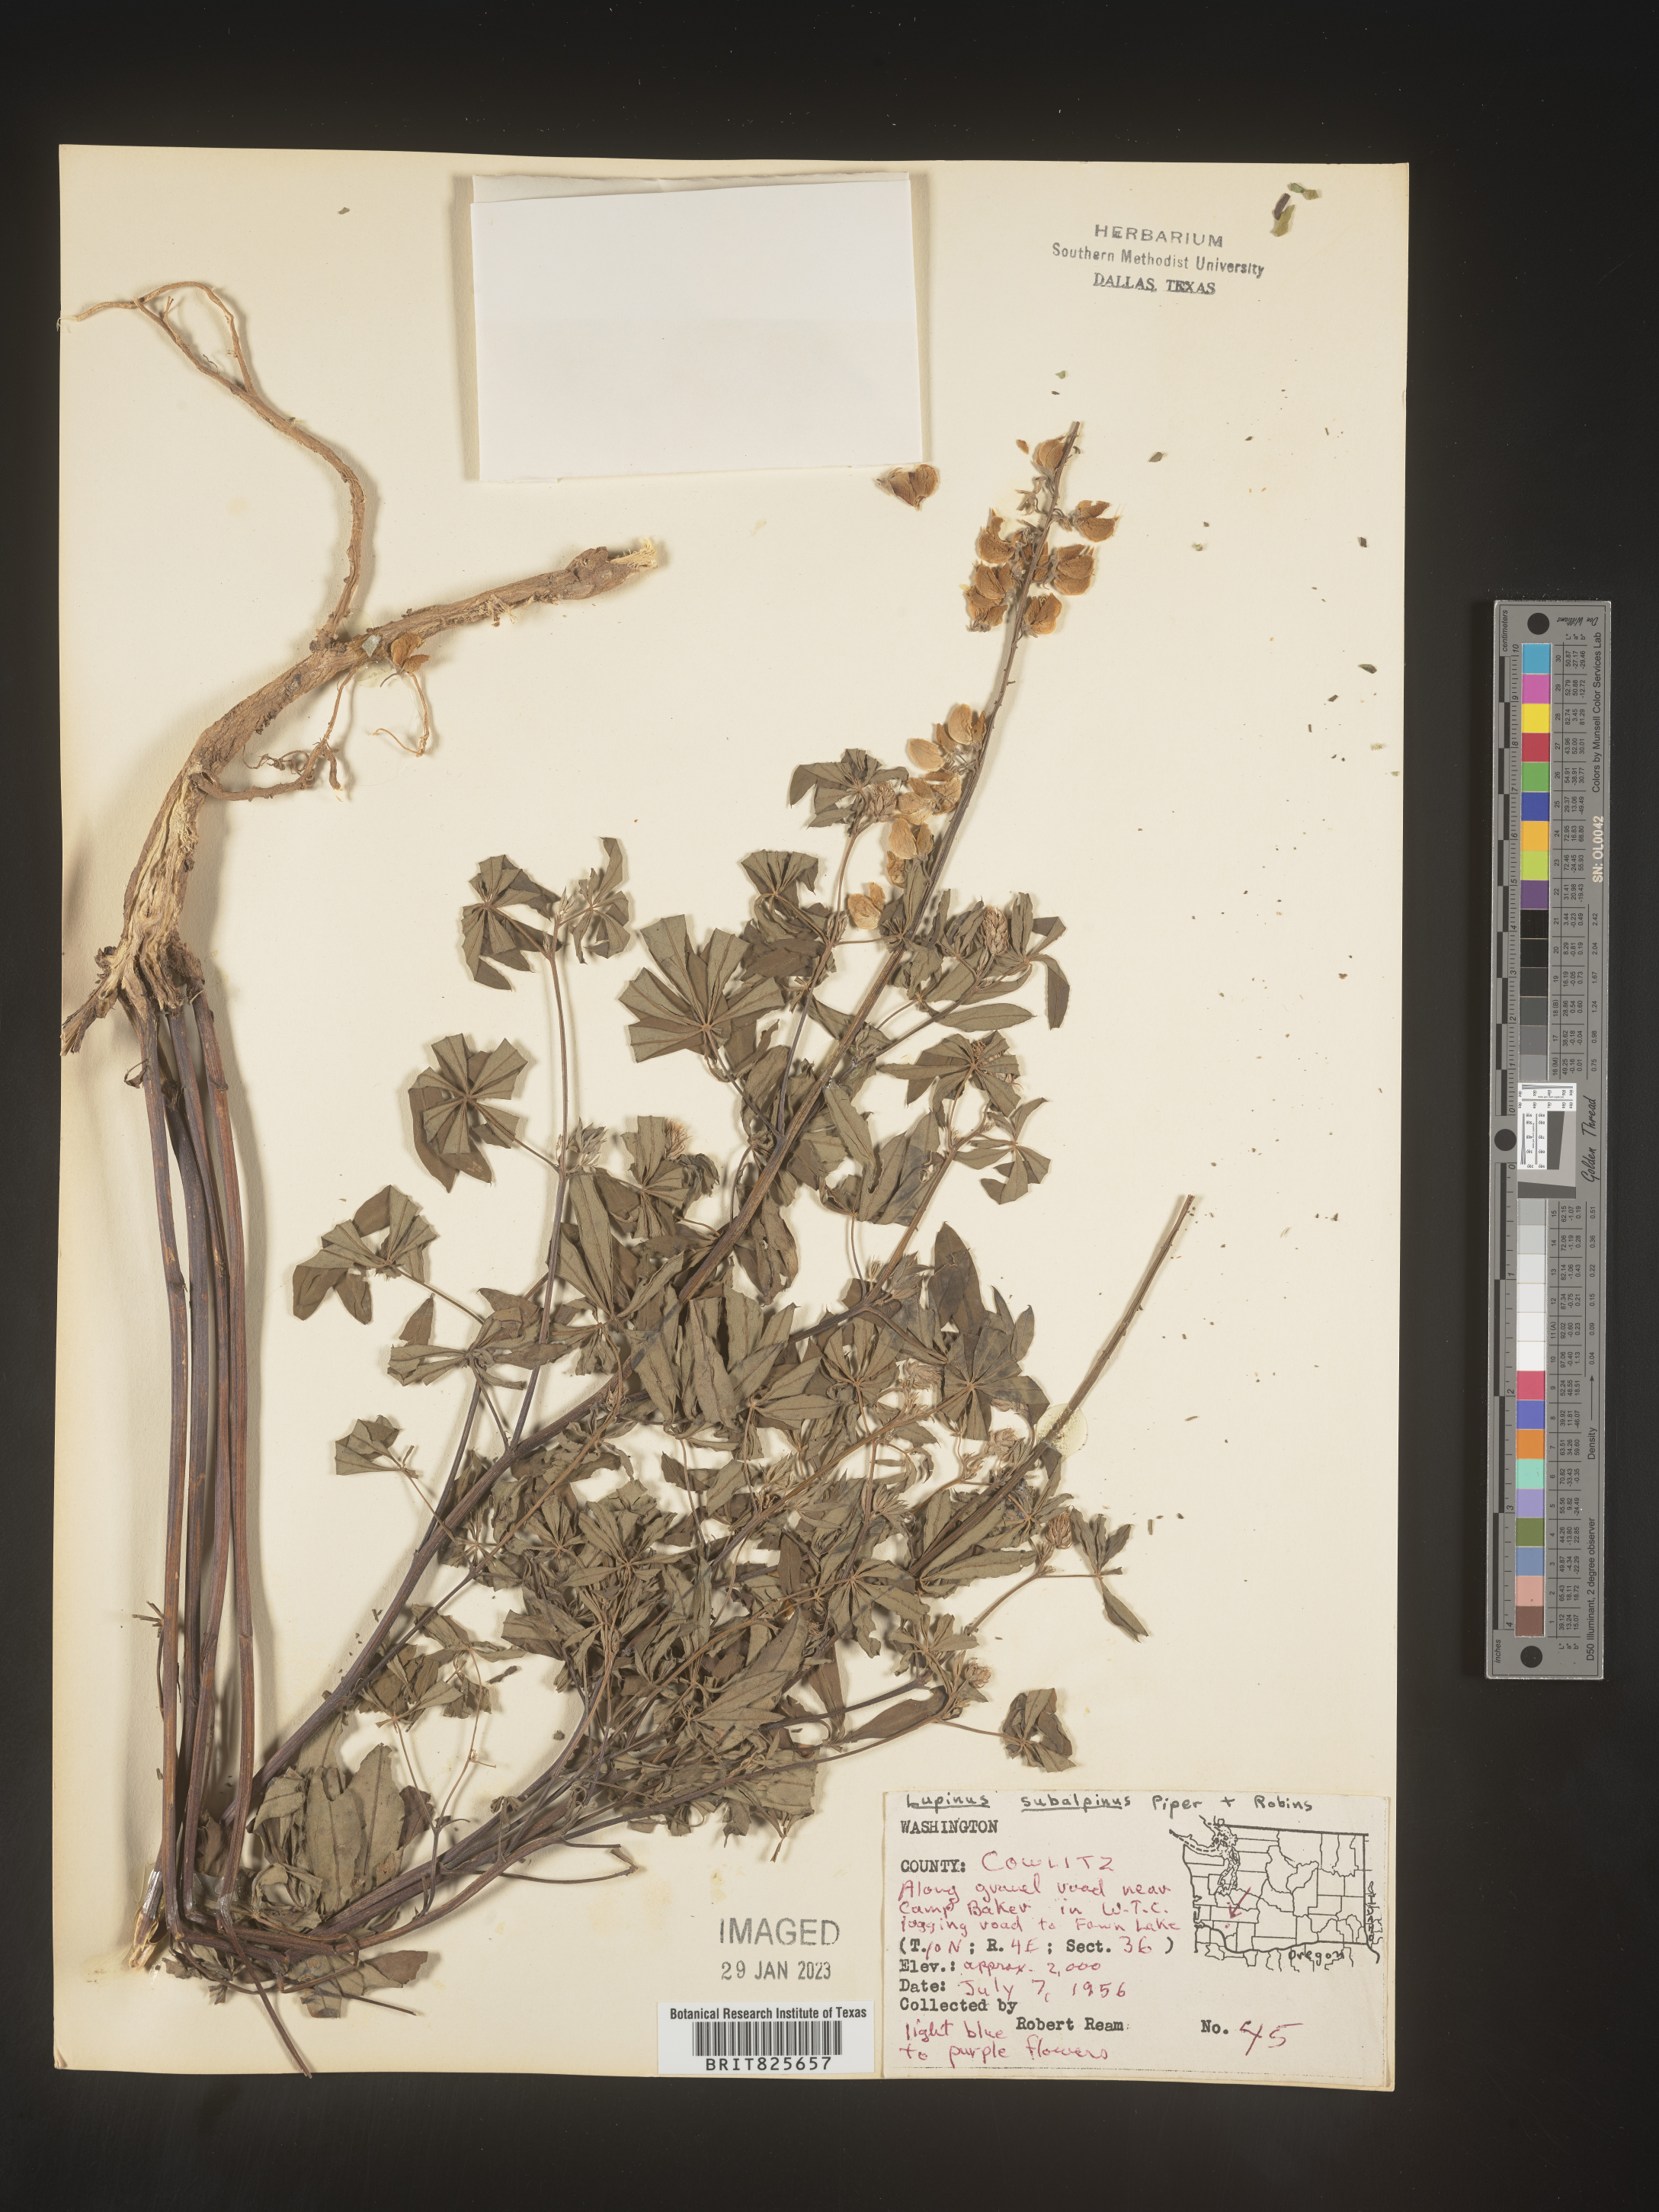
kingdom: Plantae
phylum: Tracheophyta
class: Magnoliopsida
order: Fabales
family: Fabaceae
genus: Lupinus
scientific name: Lupinus
